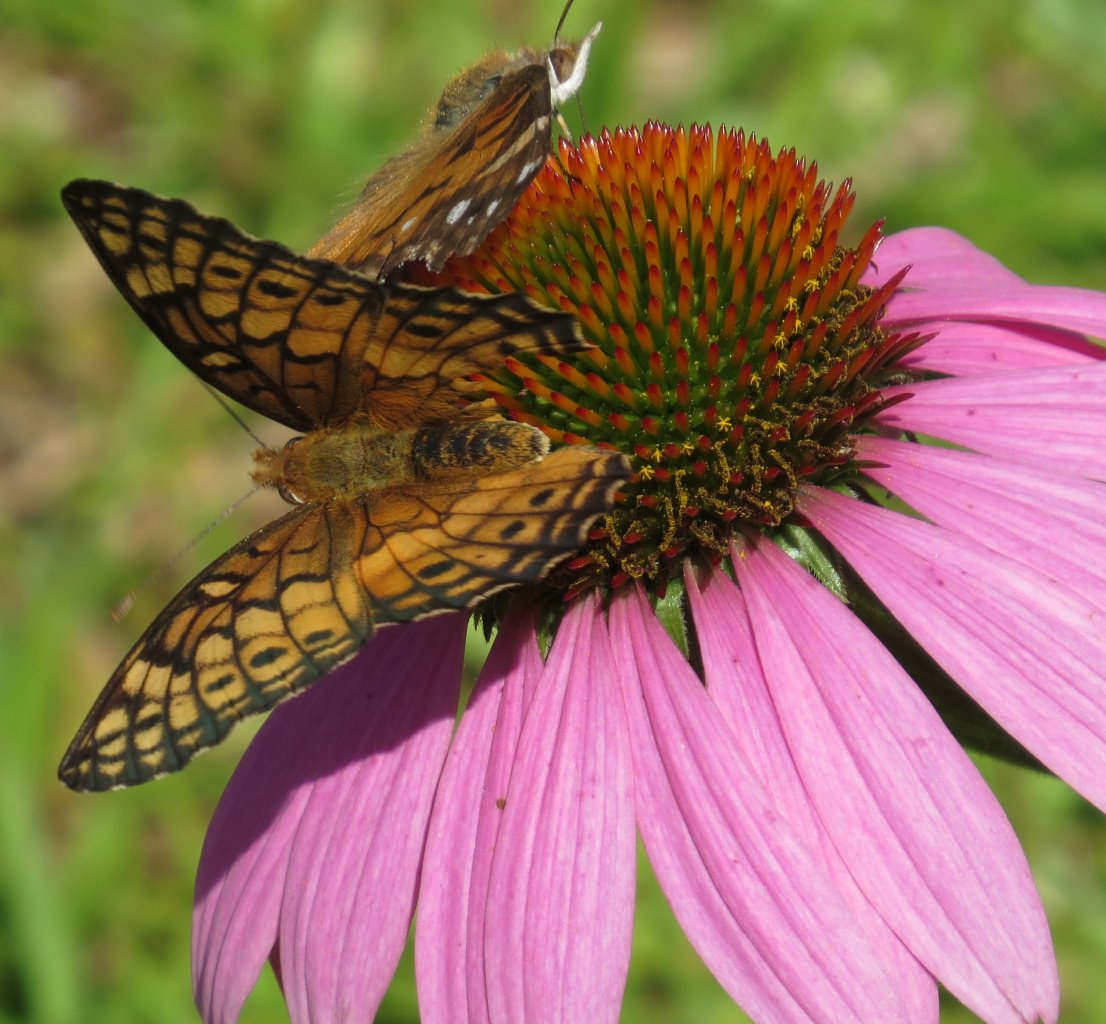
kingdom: Animalia
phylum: Arthropoda
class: Insecta
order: Lepidoptera
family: Nymphalidae
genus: Euptoieta
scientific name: Euptoieta claudia
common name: Variegated Fritillary
